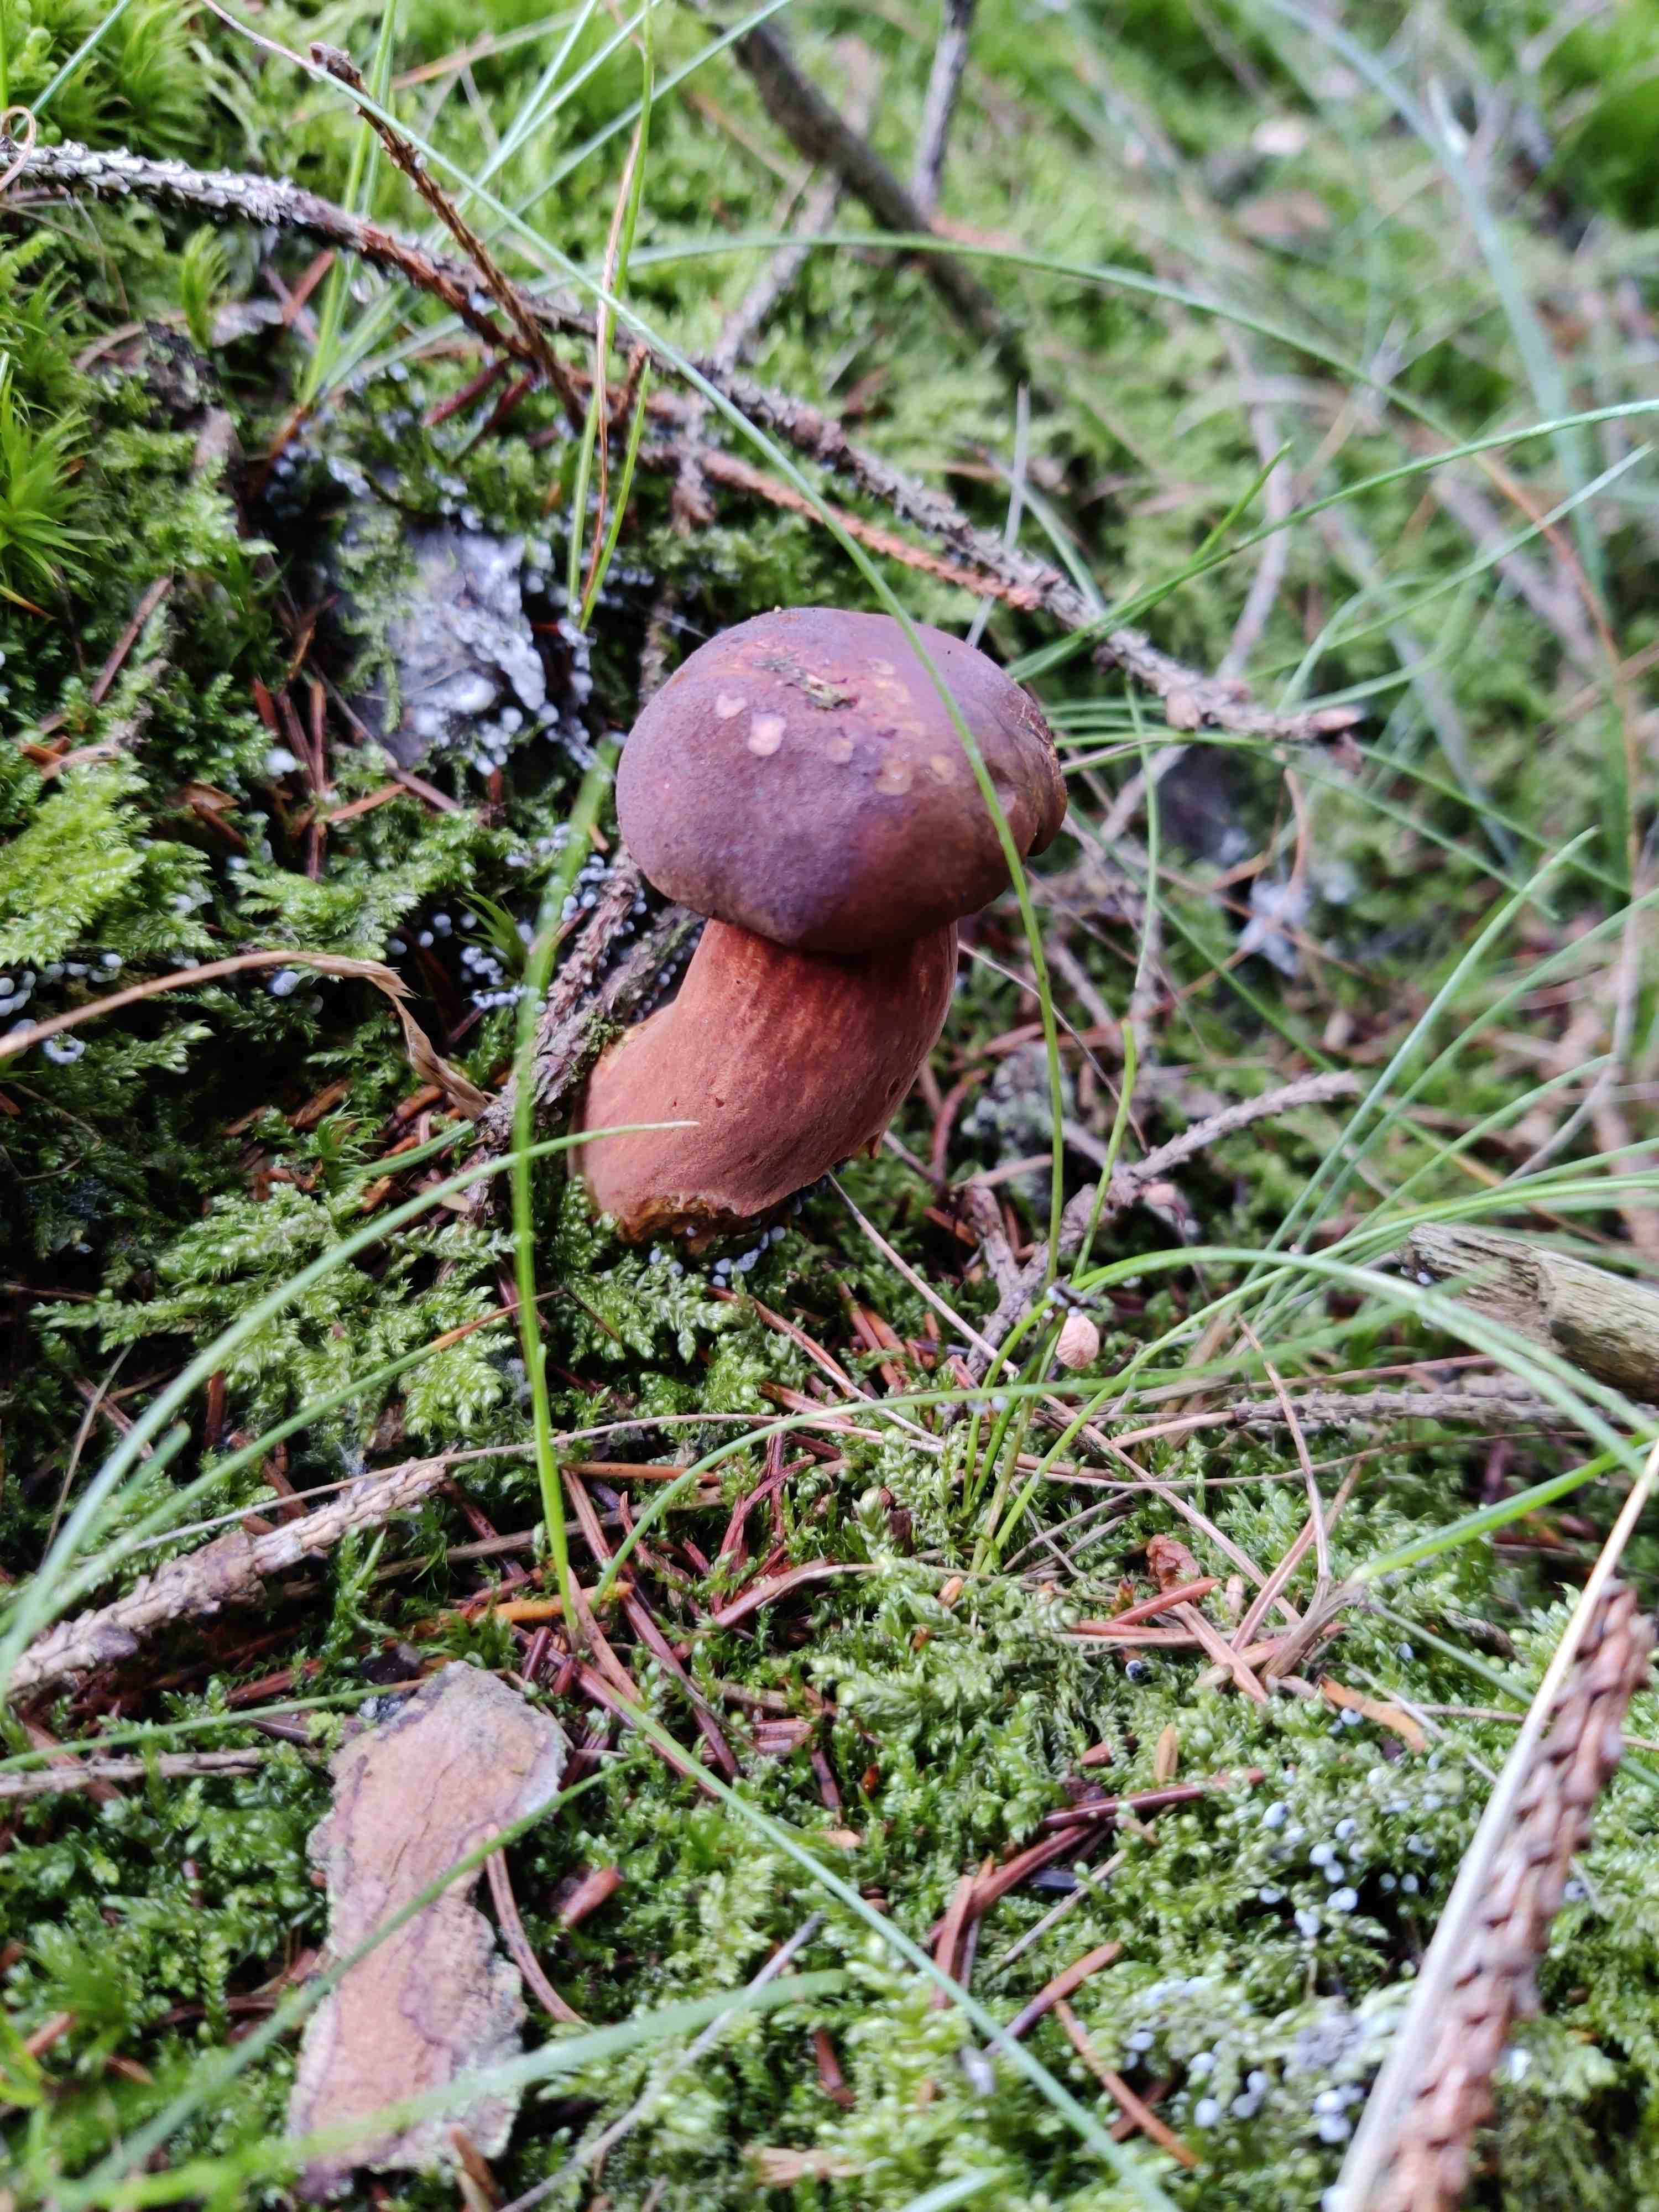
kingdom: Fungi
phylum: Basidiomycota
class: Agaricomycetes
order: Boletales
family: Boletaceae
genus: Imleria
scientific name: Imleria badia
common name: brunstokket rørhat
